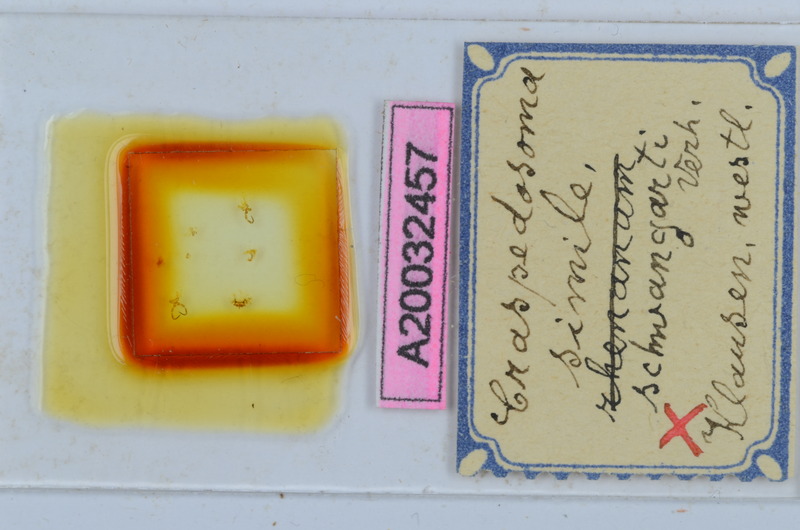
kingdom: Animalia
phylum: Arthropoda
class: Diplopoda
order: Chordeumatida
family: Craspedosomatidae
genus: Craspedosoma
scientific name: Craspedosoma rawlinsii
